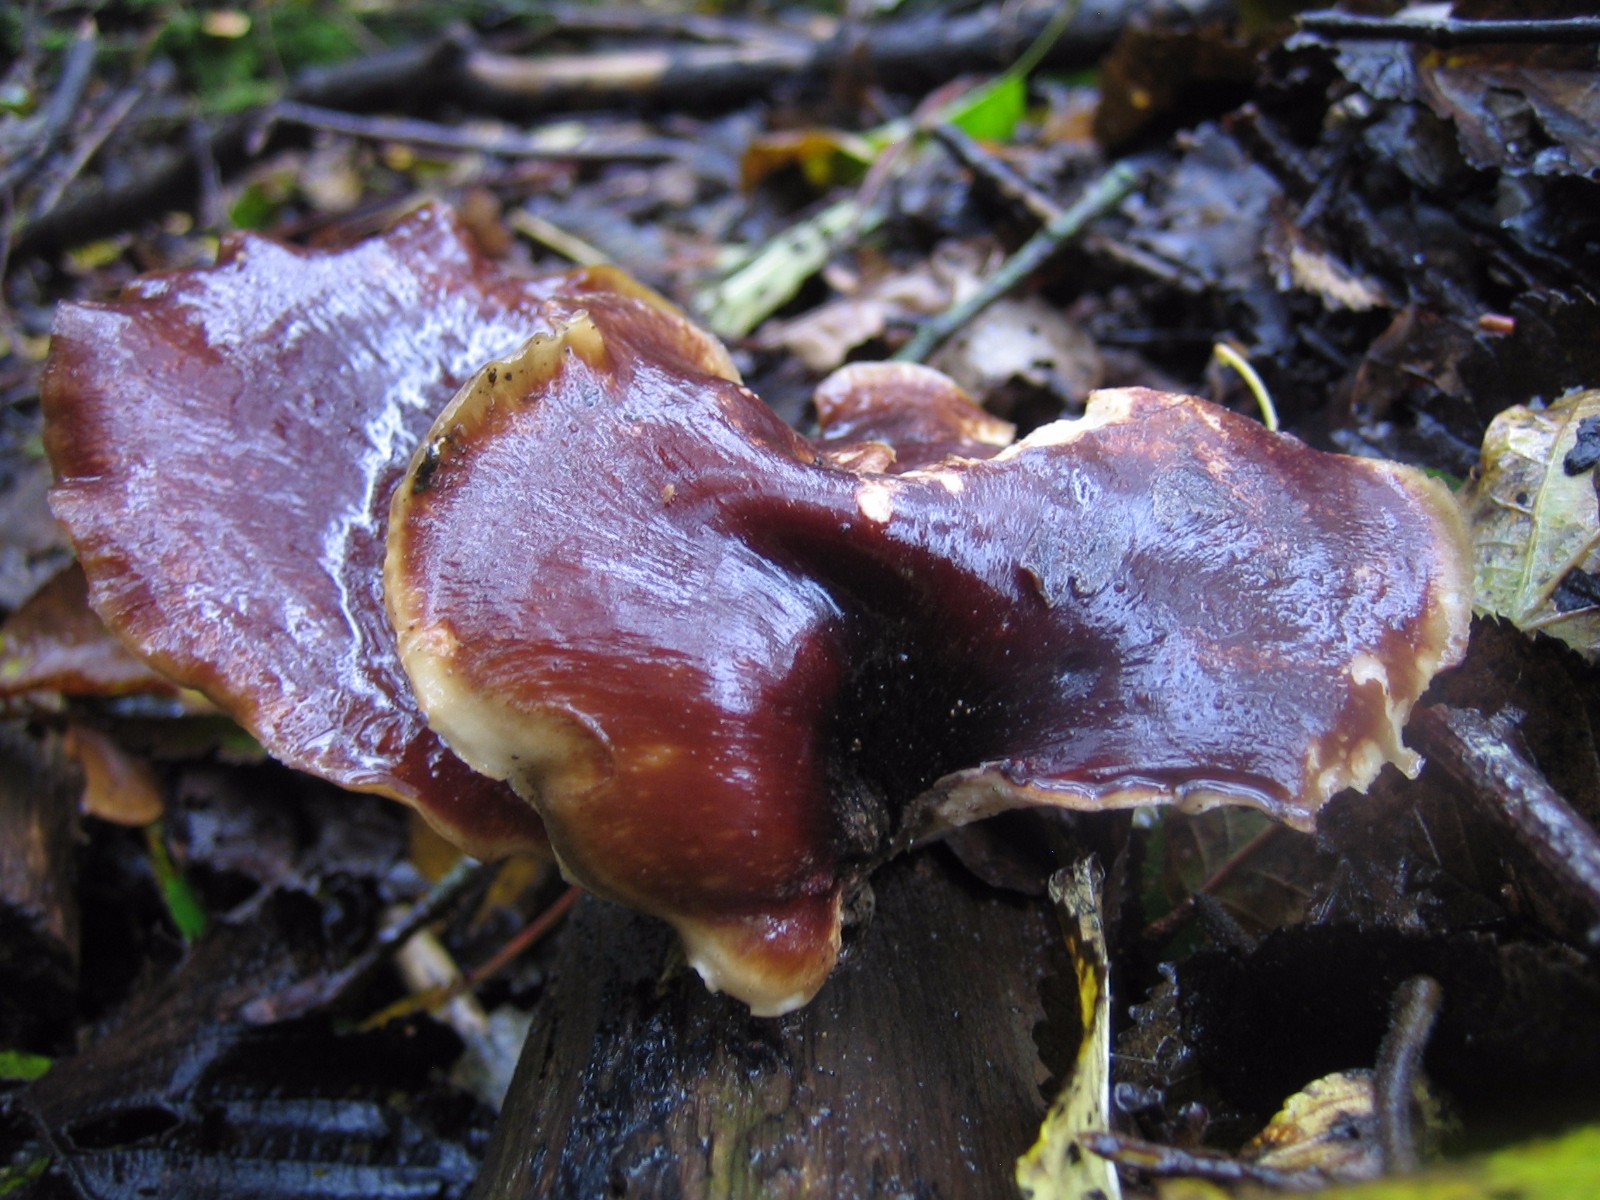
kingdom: Fungi
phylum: Basidiomycota
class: Agaricomycetes
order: Polyporales
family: Polyporaceae
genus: Picipes
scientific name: Picipes badius
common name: kastaniebrun stilkporesvamp
